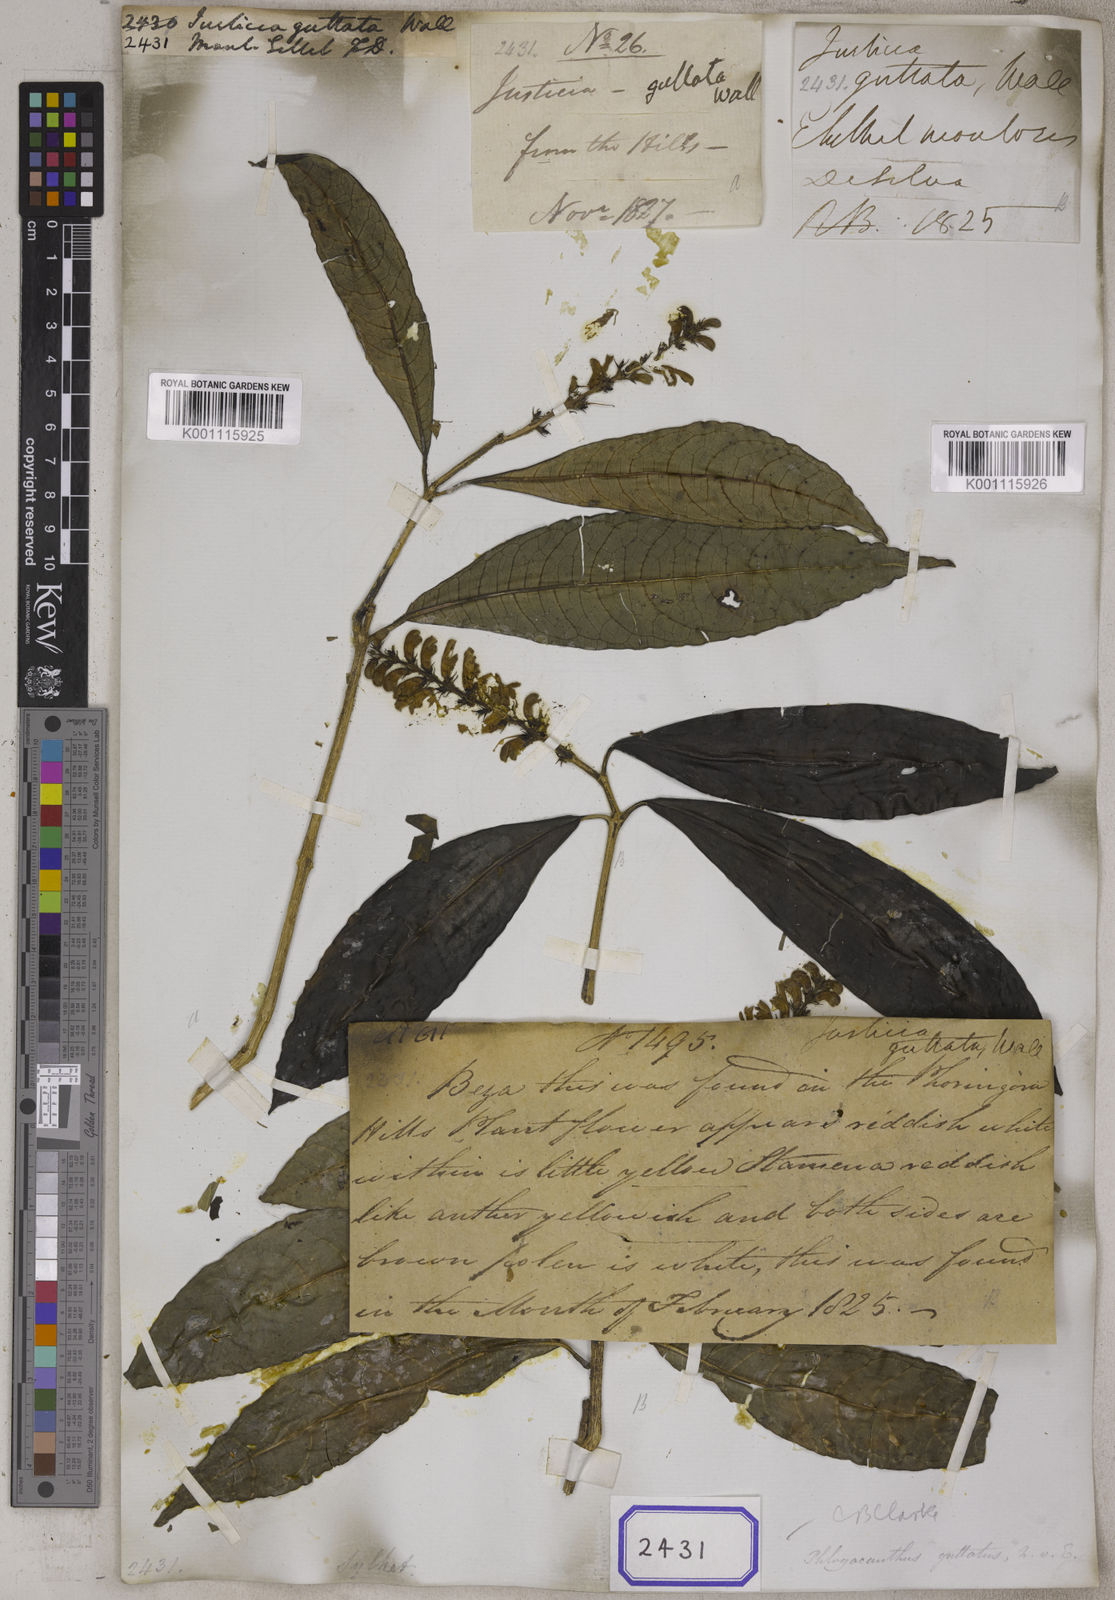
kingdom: Plantae
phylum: Tracheophyta
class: Magnoliopsida
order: Lamiales
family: Acanthaceae
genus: Phlogacanthus
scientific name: Phlogacanthus guttatus
